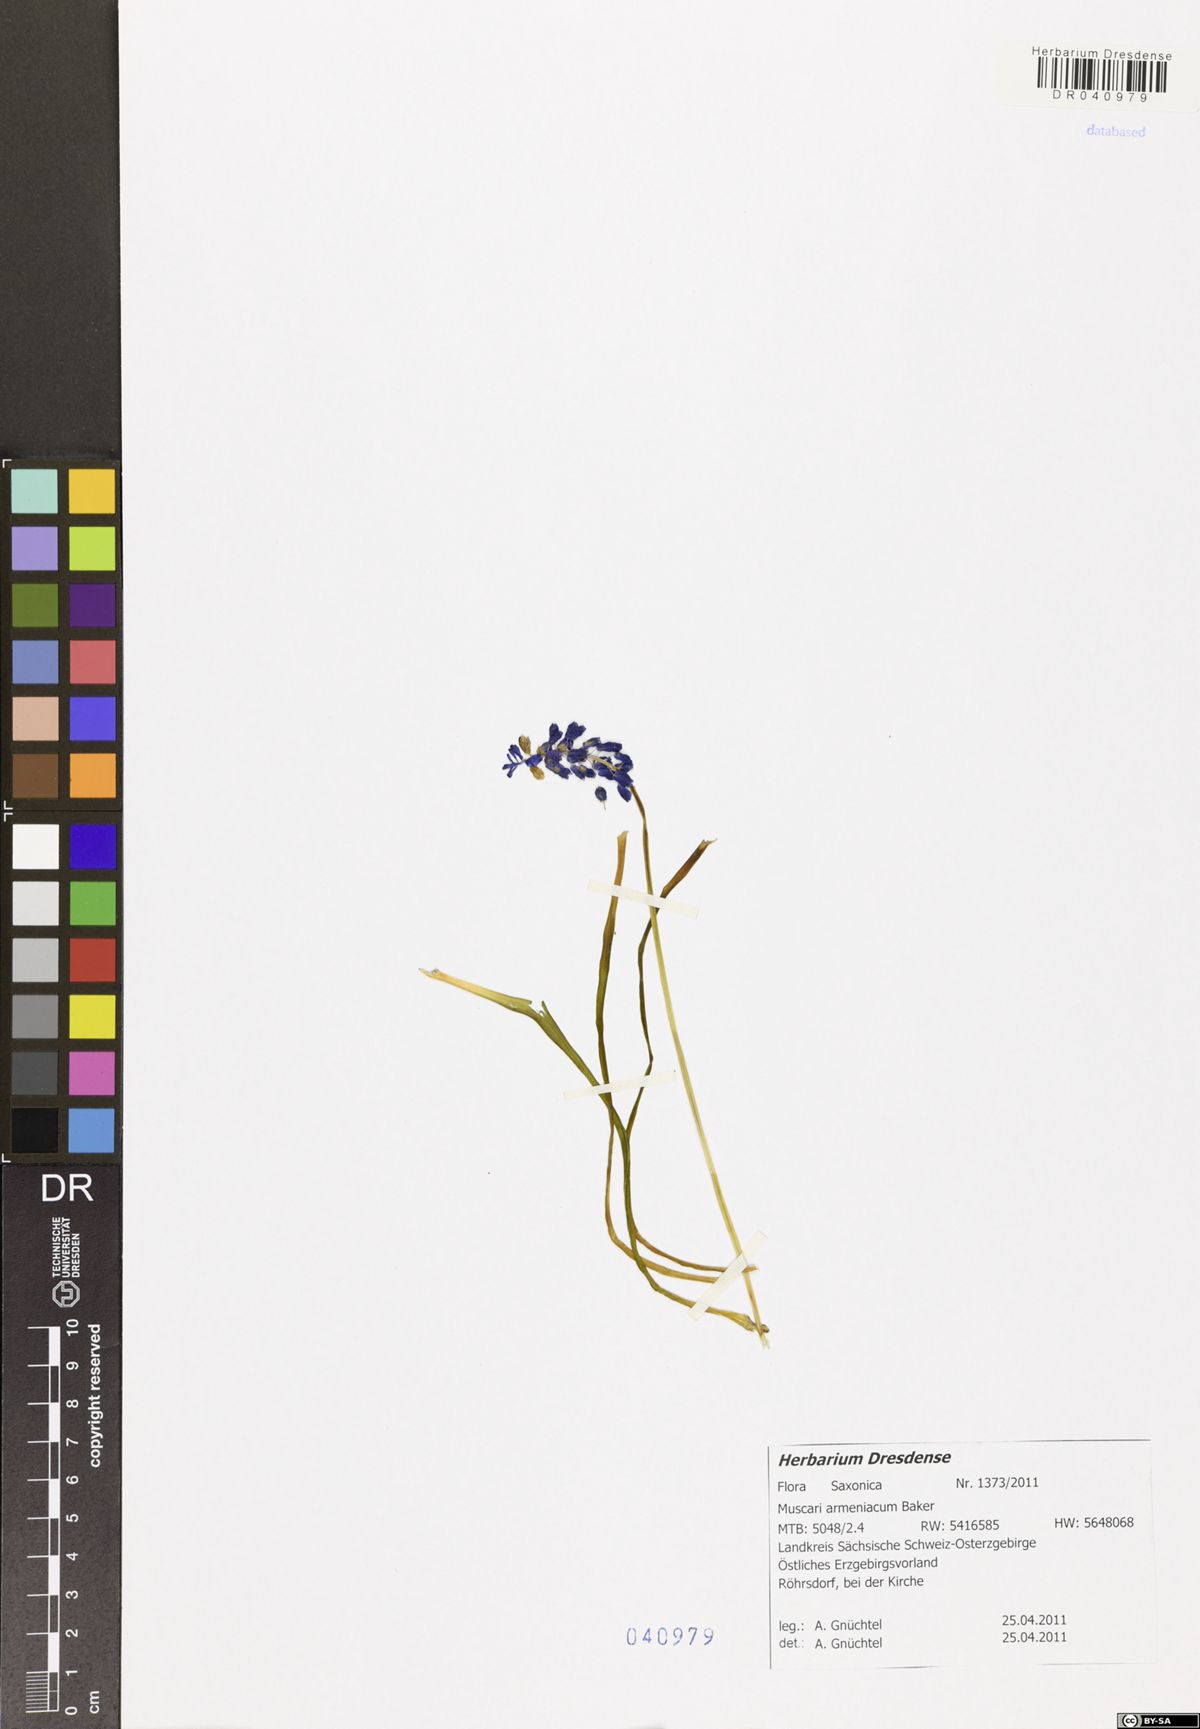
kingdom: Plantae
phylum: Tracheophyta
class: Liliopsida
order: Asparagales
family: Asparagaceae
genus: Muscari
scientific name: Muscari armeniacum
